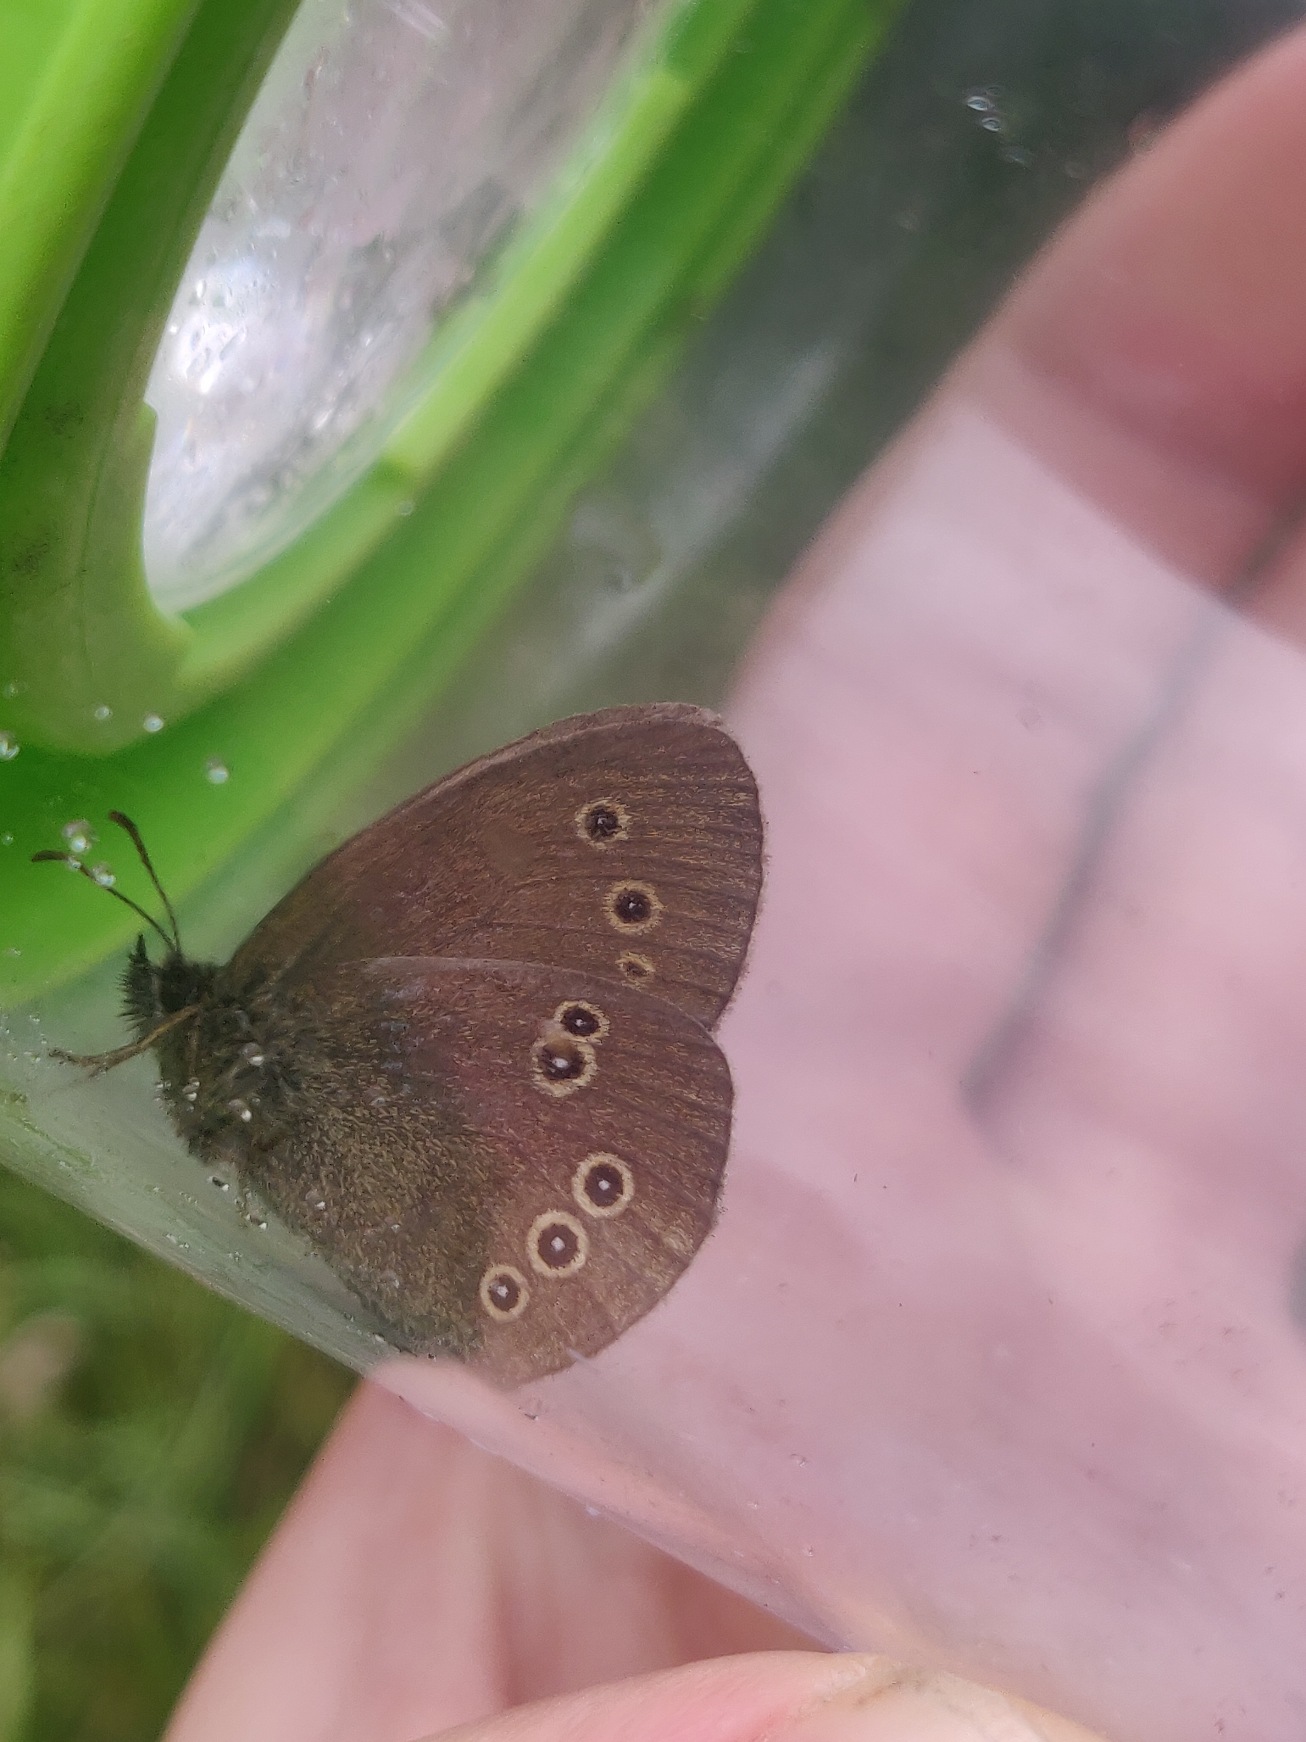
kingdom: Animalia
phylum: Arthropoda
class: Insecta
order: Lepidoptera
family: Nymphalidae
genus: Aphantopus
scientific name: Aphantopus hyperantus
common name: Engrandøje
